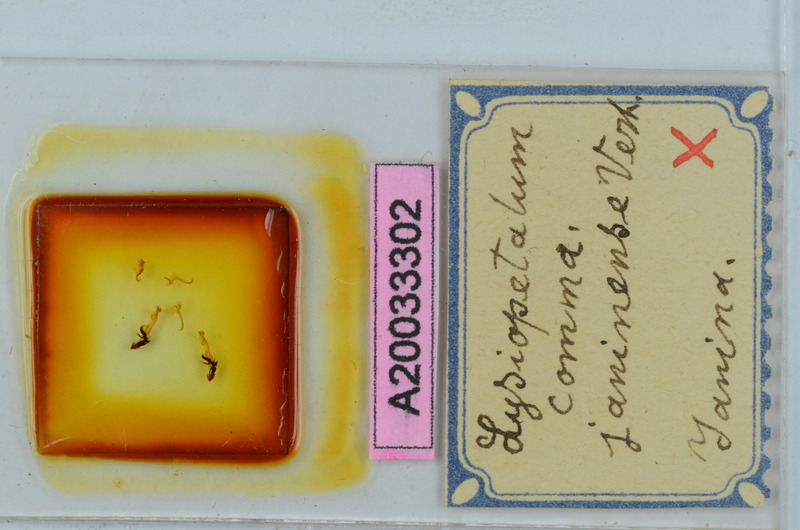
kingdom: Animalia
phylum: Arthropoda
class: Diplopoda
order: Callipodida
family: Schizopetalidae
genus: Acanthopetalum
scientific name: Acanthopetalum carinatum
